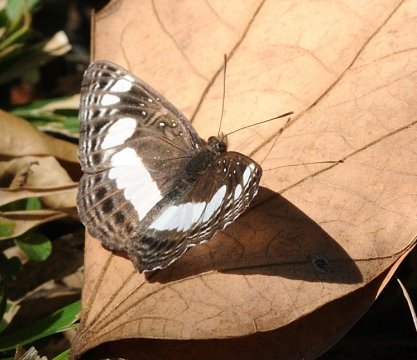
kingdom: Animalia
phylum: Arthropoda
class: Insecta
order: Lepidoptera
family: Nymphalidae
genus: Neptis
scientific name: Neptis saclava
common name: Spotted Sailer
